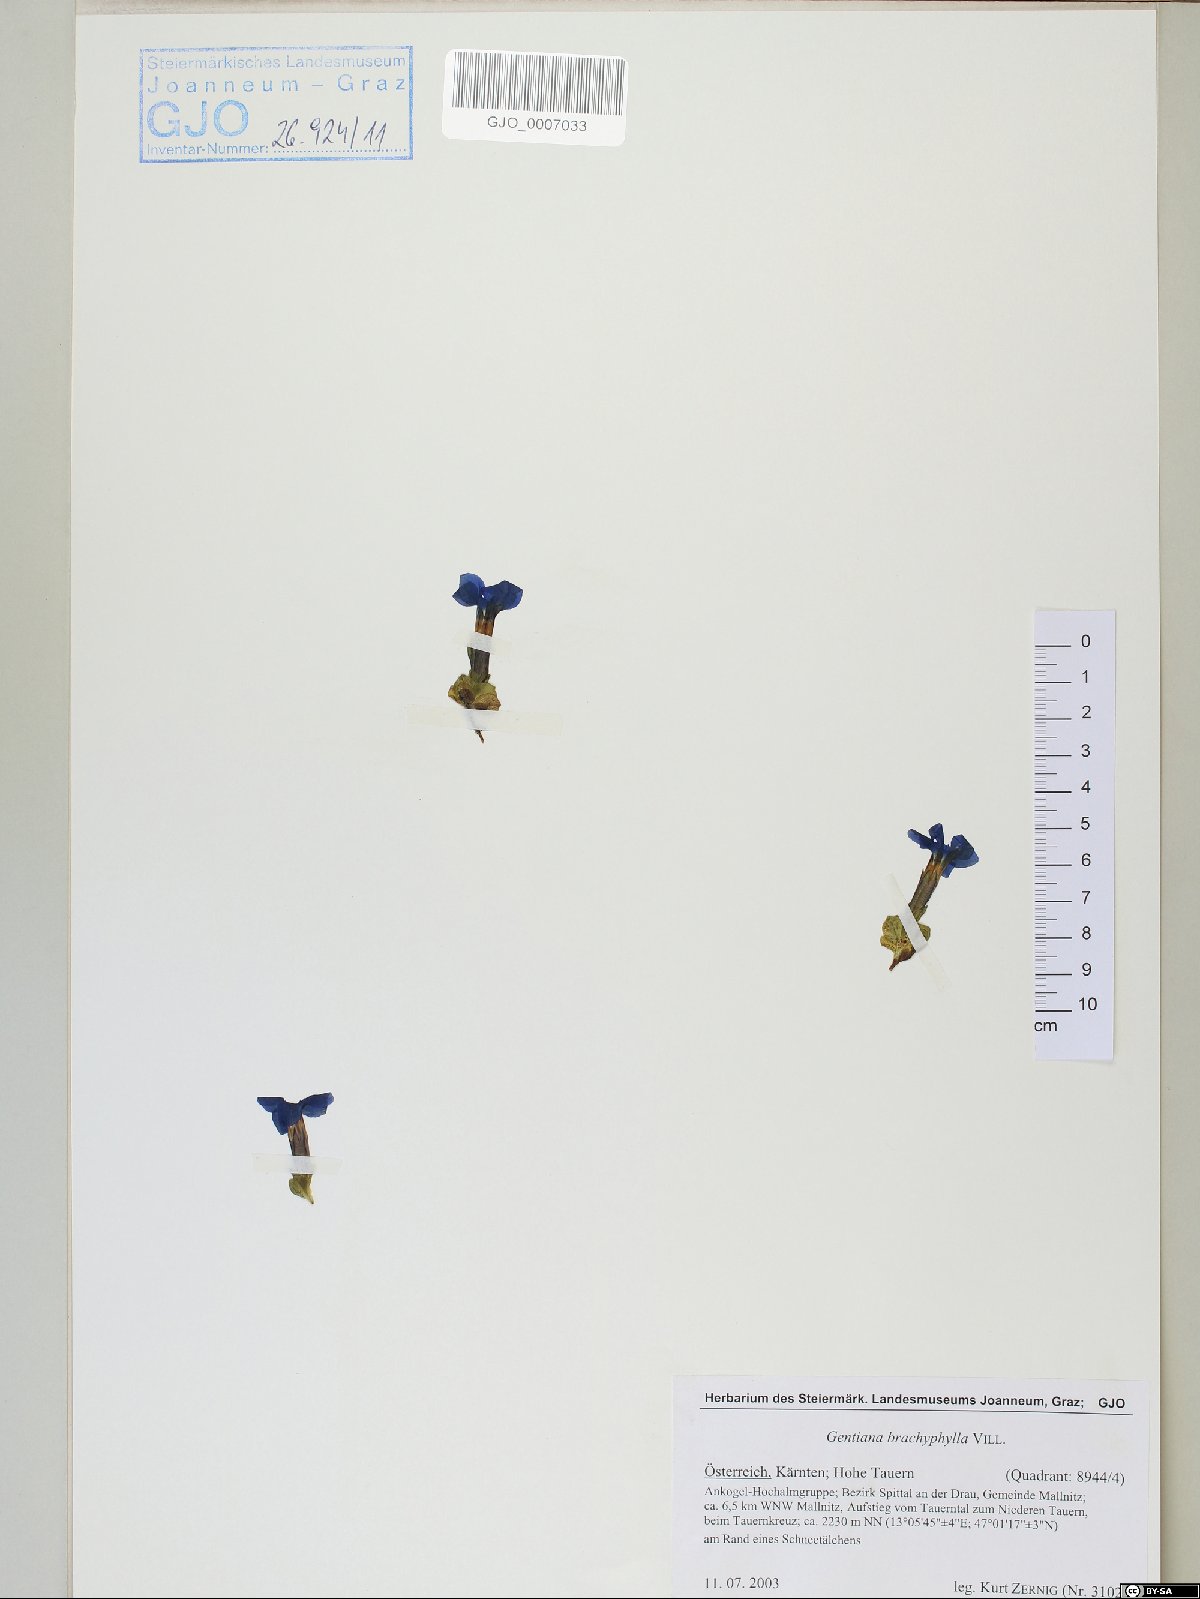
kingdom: Plantae
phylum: Tracheophyta
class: Magnoliopsida
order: Gentianales
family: Gentianaceae
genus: Gentiana
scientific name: Gentiana brachyphylla
